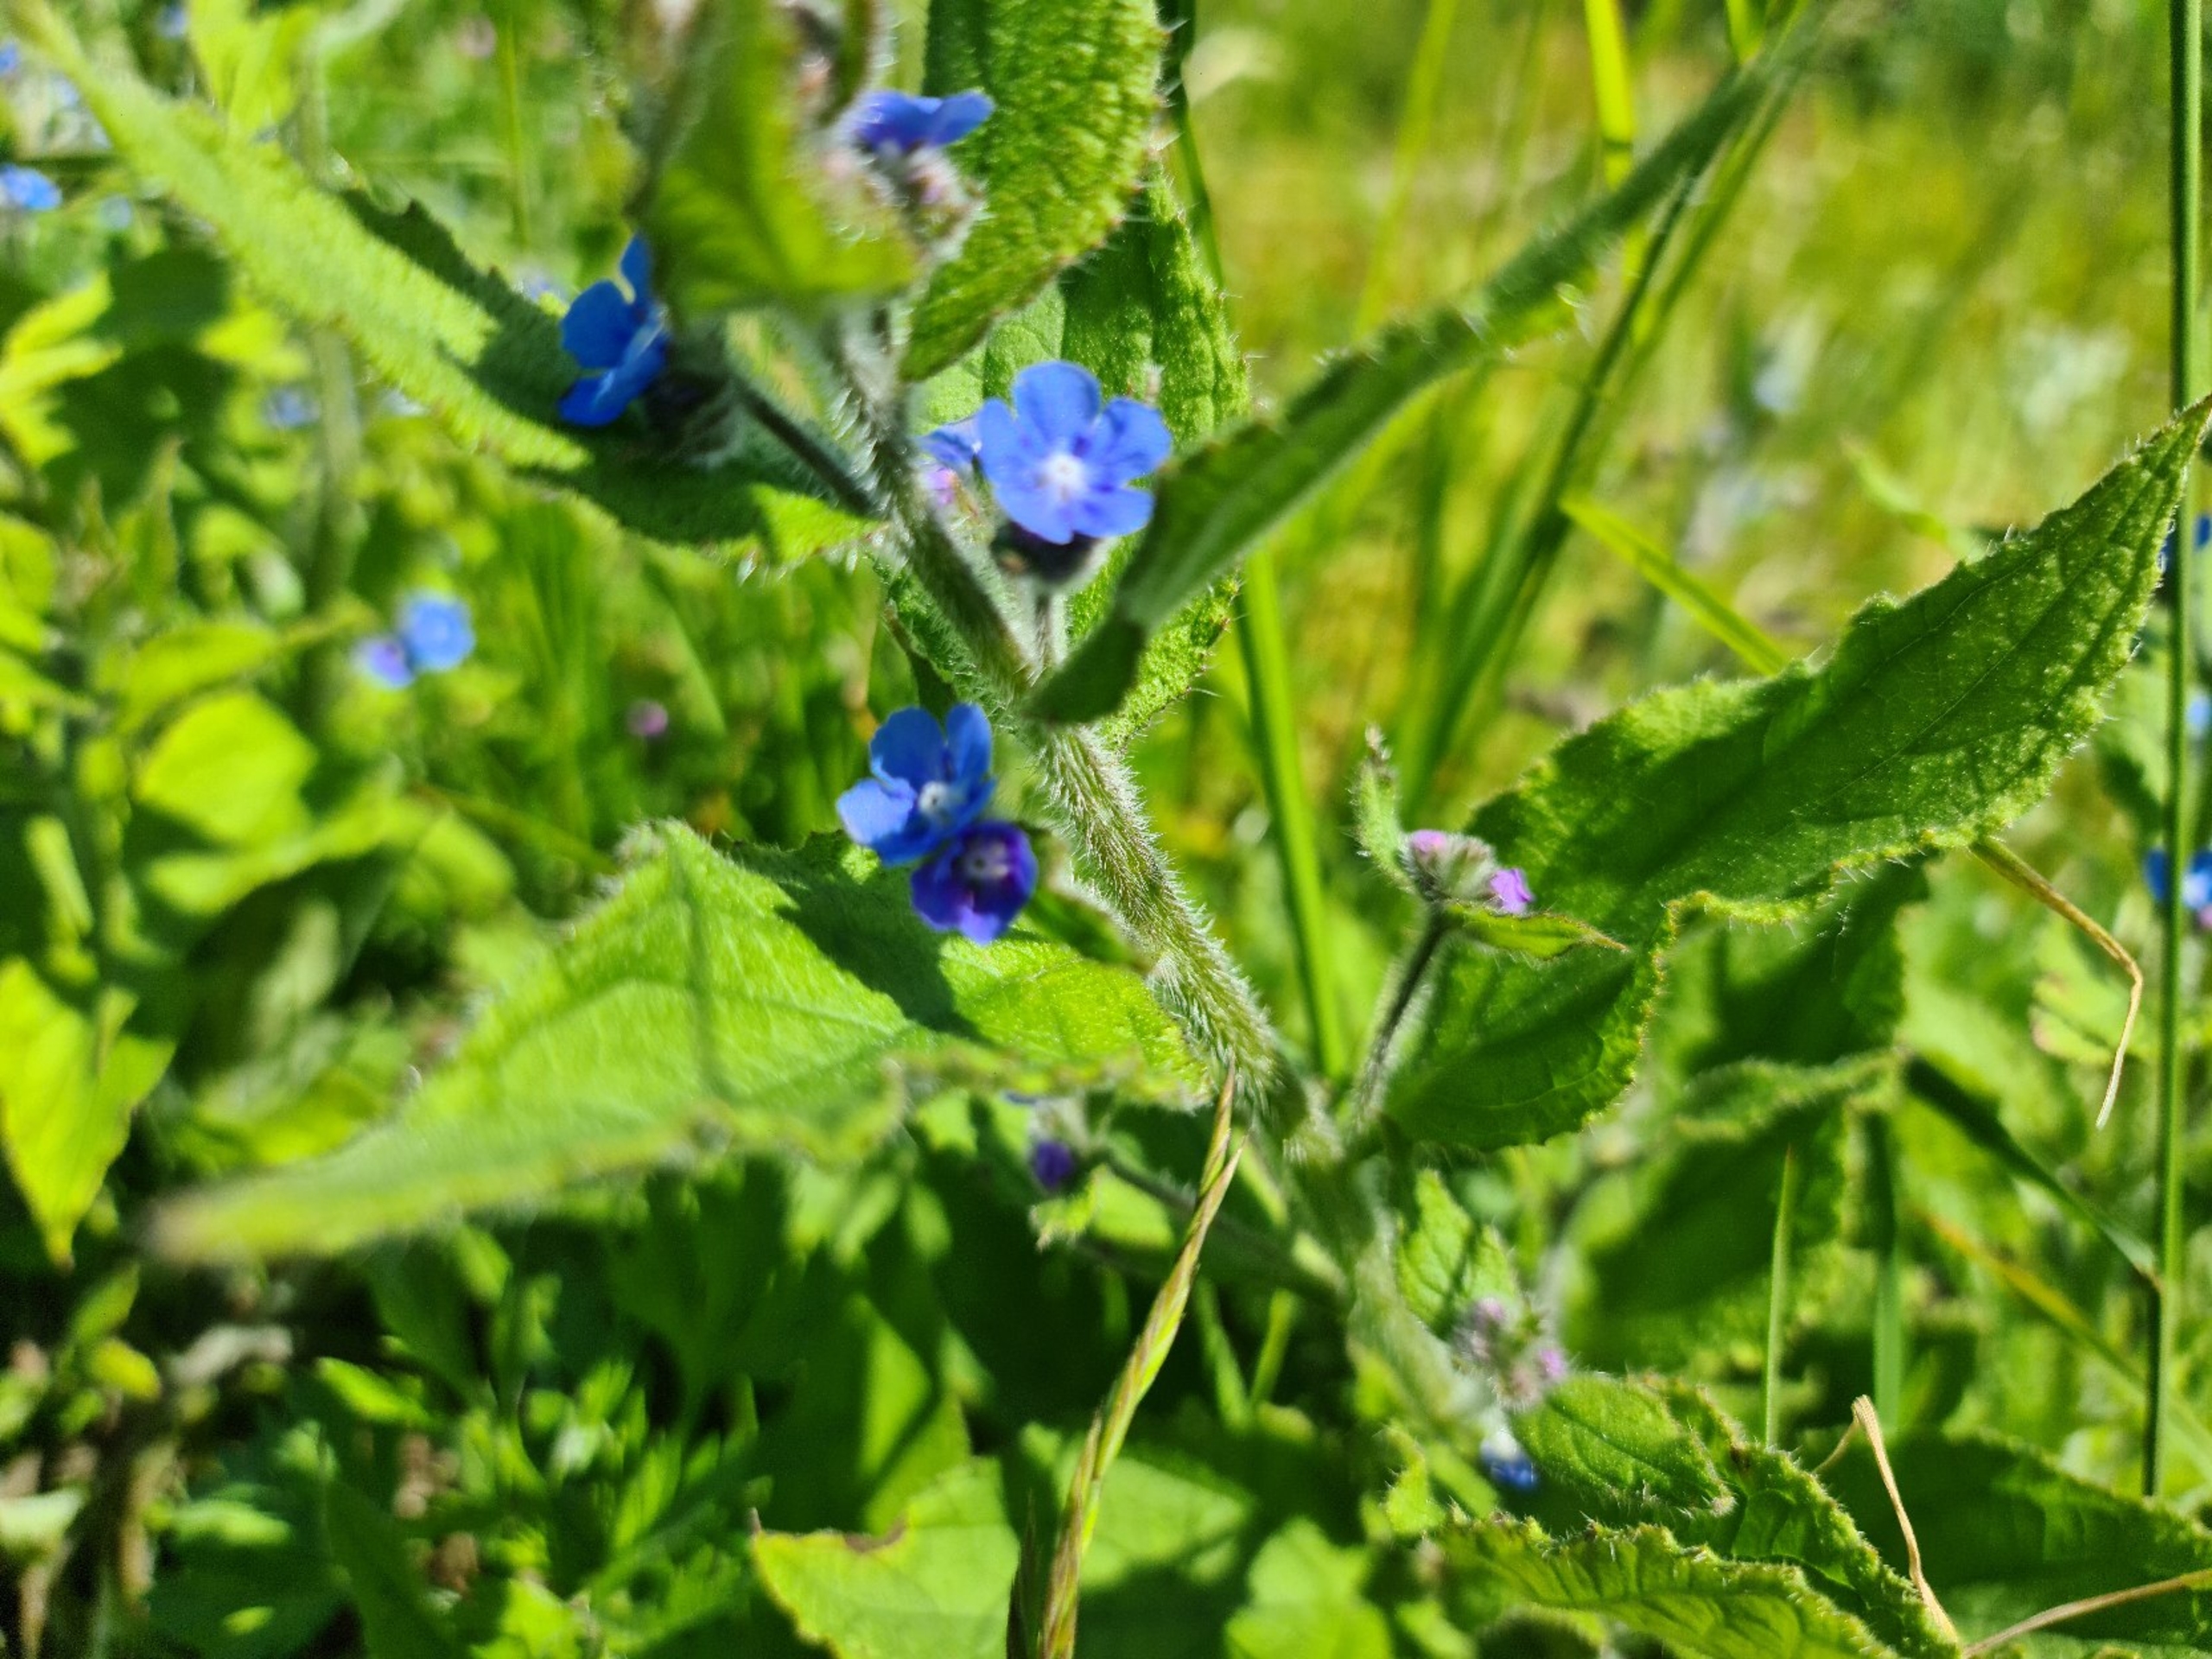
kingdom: Plantae
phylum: Tracheophyta
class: Magnoliopsida
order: Boraginales
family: Boraginaceae
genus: Pentaglottis
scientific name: Pentaglottis sempervirens
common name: Femtunge
